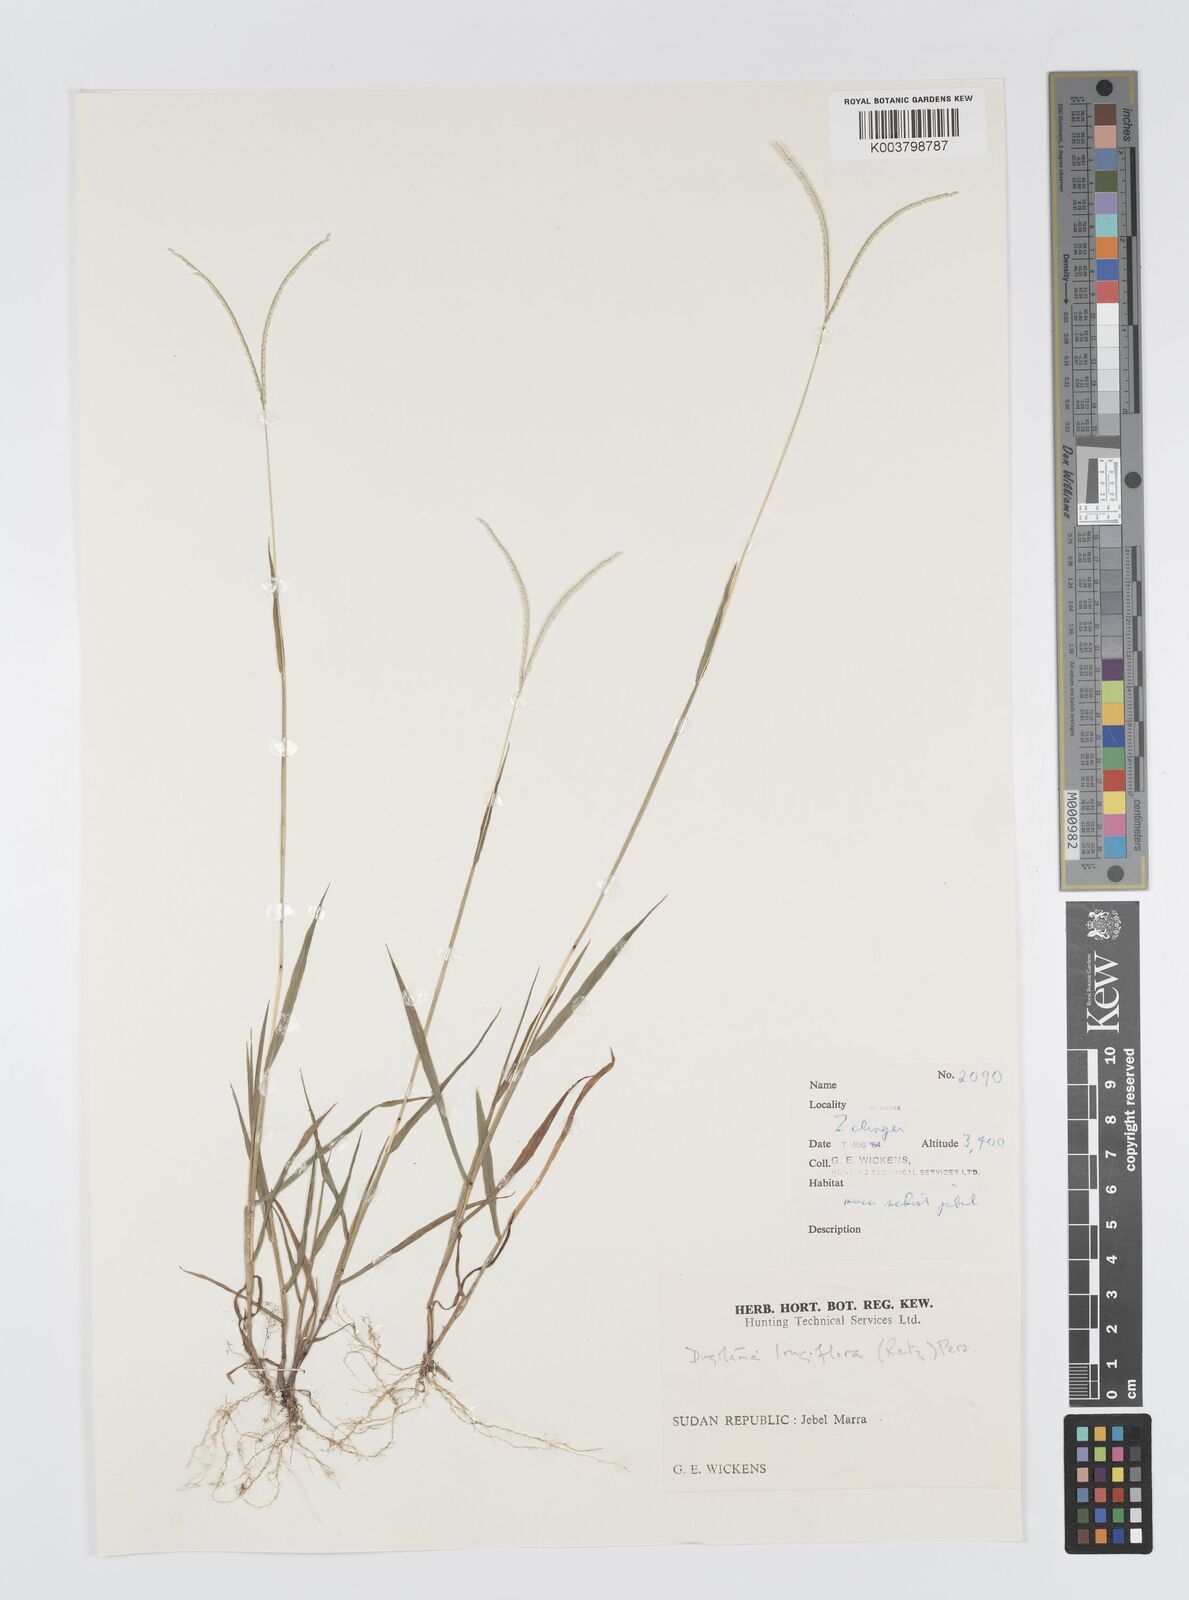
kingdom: Plantae
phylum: Tracheophyta
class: Liliopsida
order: Poales
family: Poaceae
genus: Digitaria
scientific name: Digitaria longiflora
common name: Wire crabgrass
